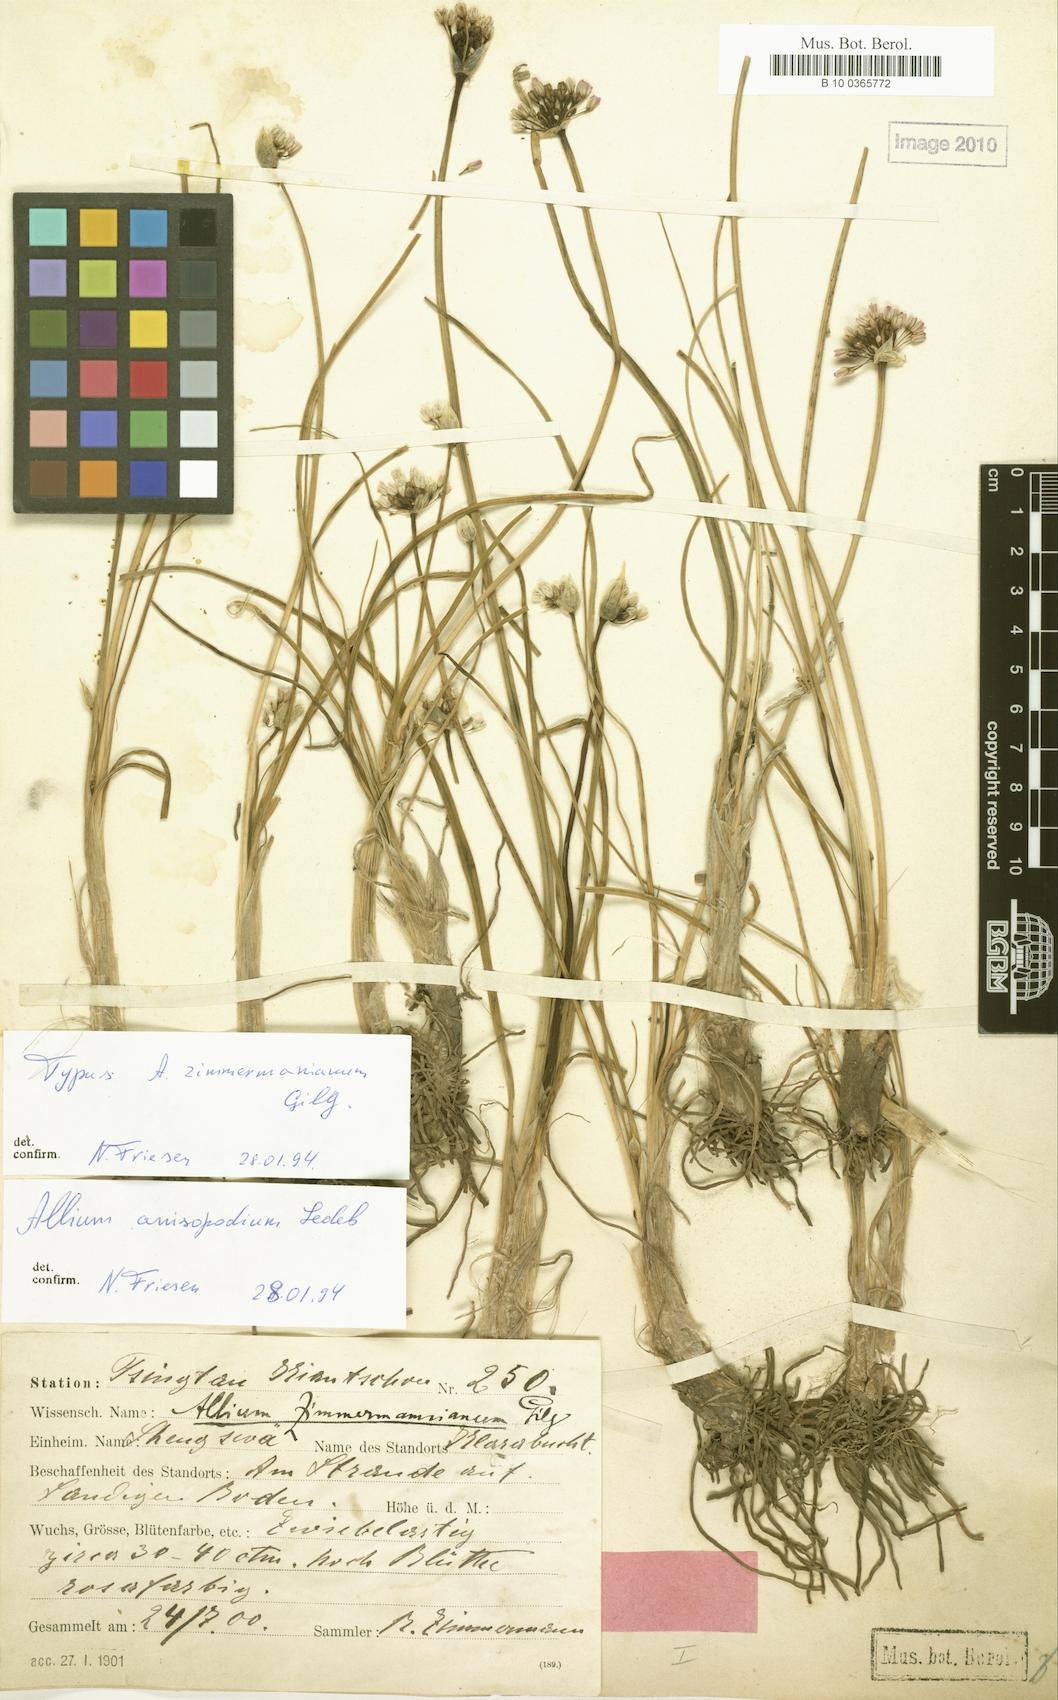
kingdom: Plantae
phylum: Tracheophyta
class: Liliopsida
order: Asparagales
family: Amaryllidaceae
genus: Allium
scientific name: Allium anisopodium
